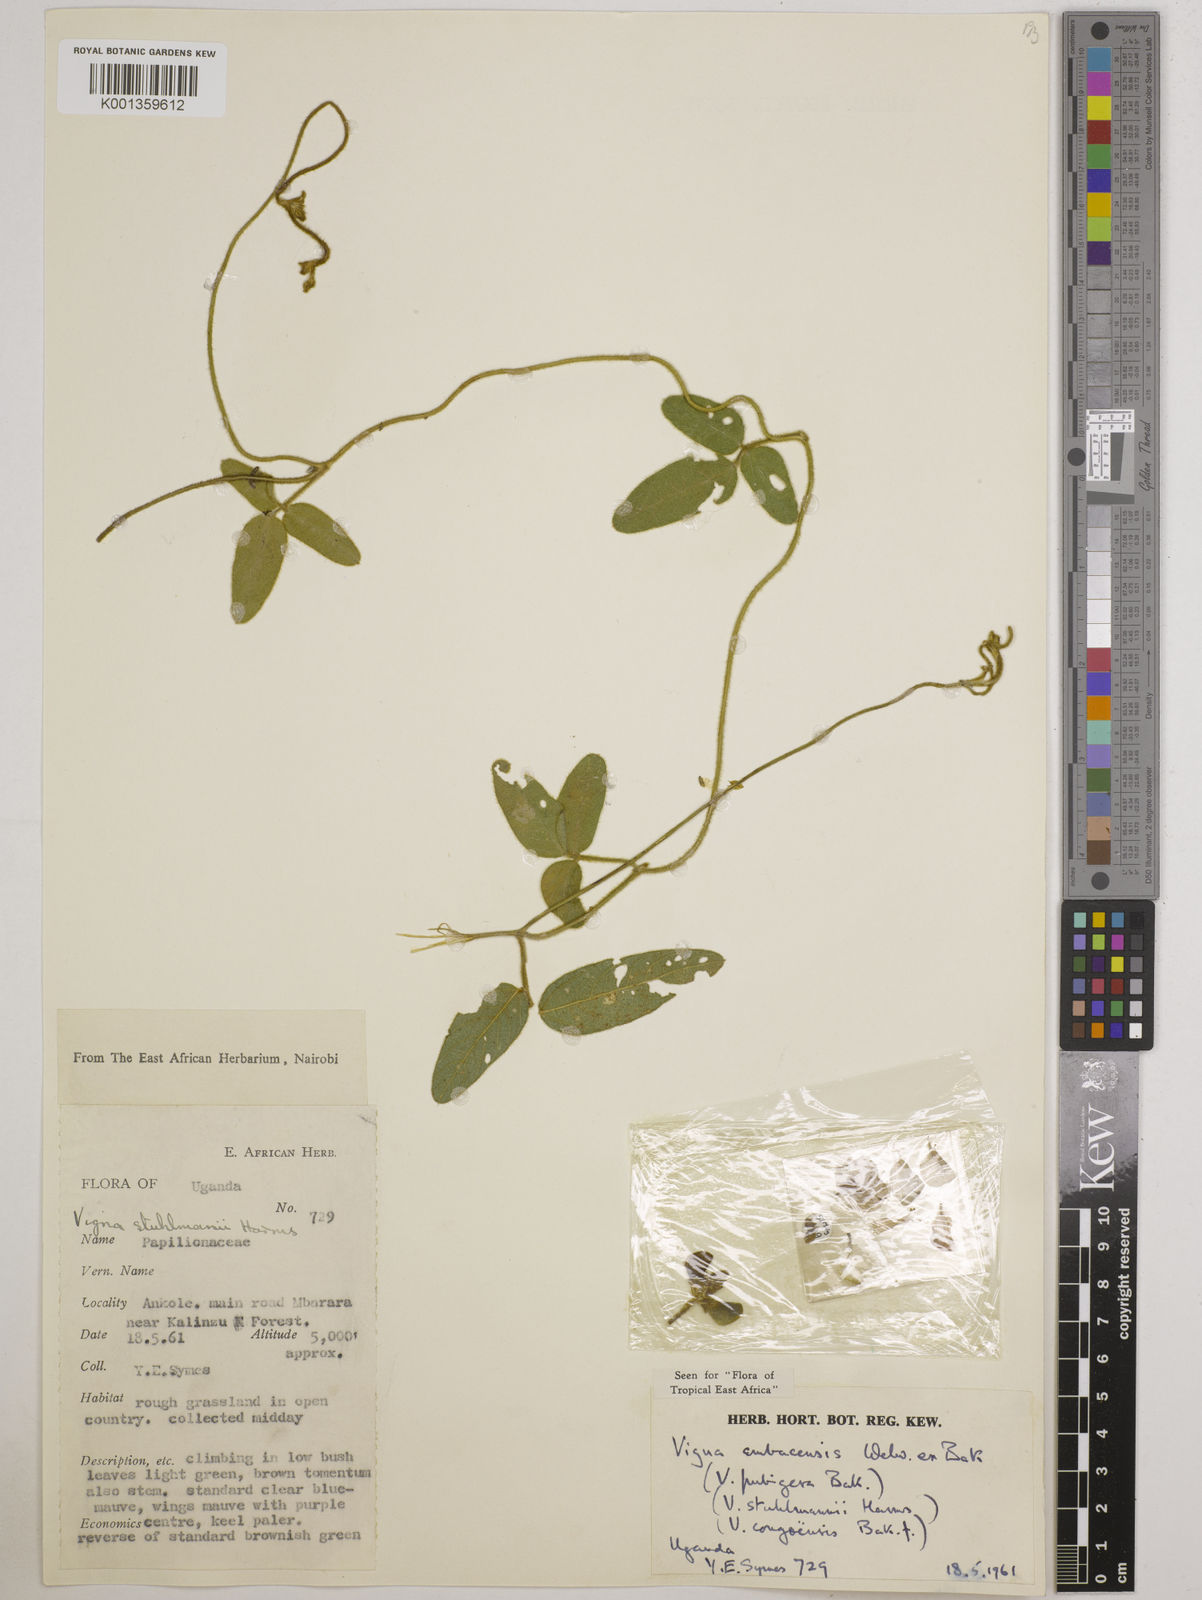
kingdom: Plantae
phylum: Tracheophyta
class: Magnoliopsida
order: Fabales
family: Fabaceae
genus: Vigna
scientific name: Vigna ambacensis
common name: Tsarkiyan zomo
